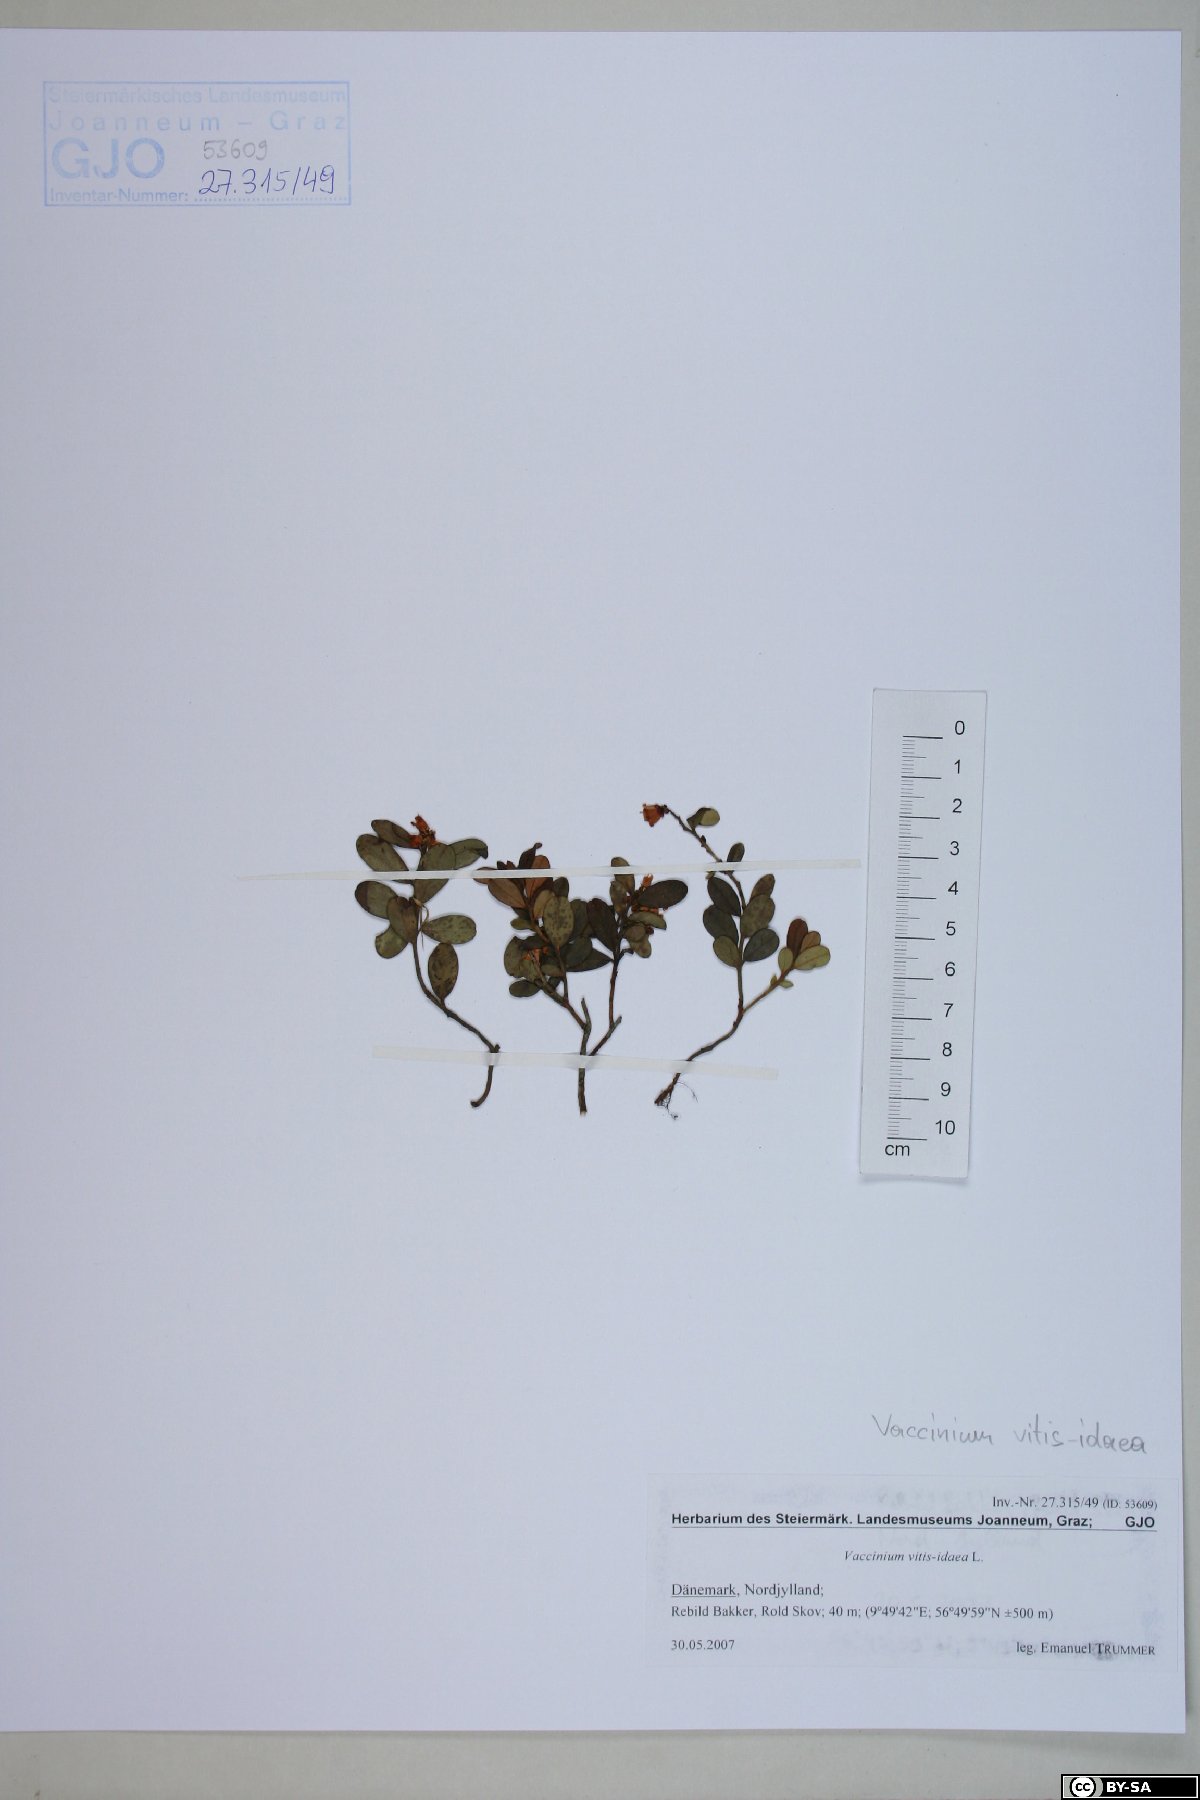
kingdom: Plantae
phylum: Tracheophyta
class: Magnoliopsida
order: Ericales
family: Ericaceae
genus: Vaccinium
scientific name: Vaccinium vitis-idaea
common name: Cowberry
